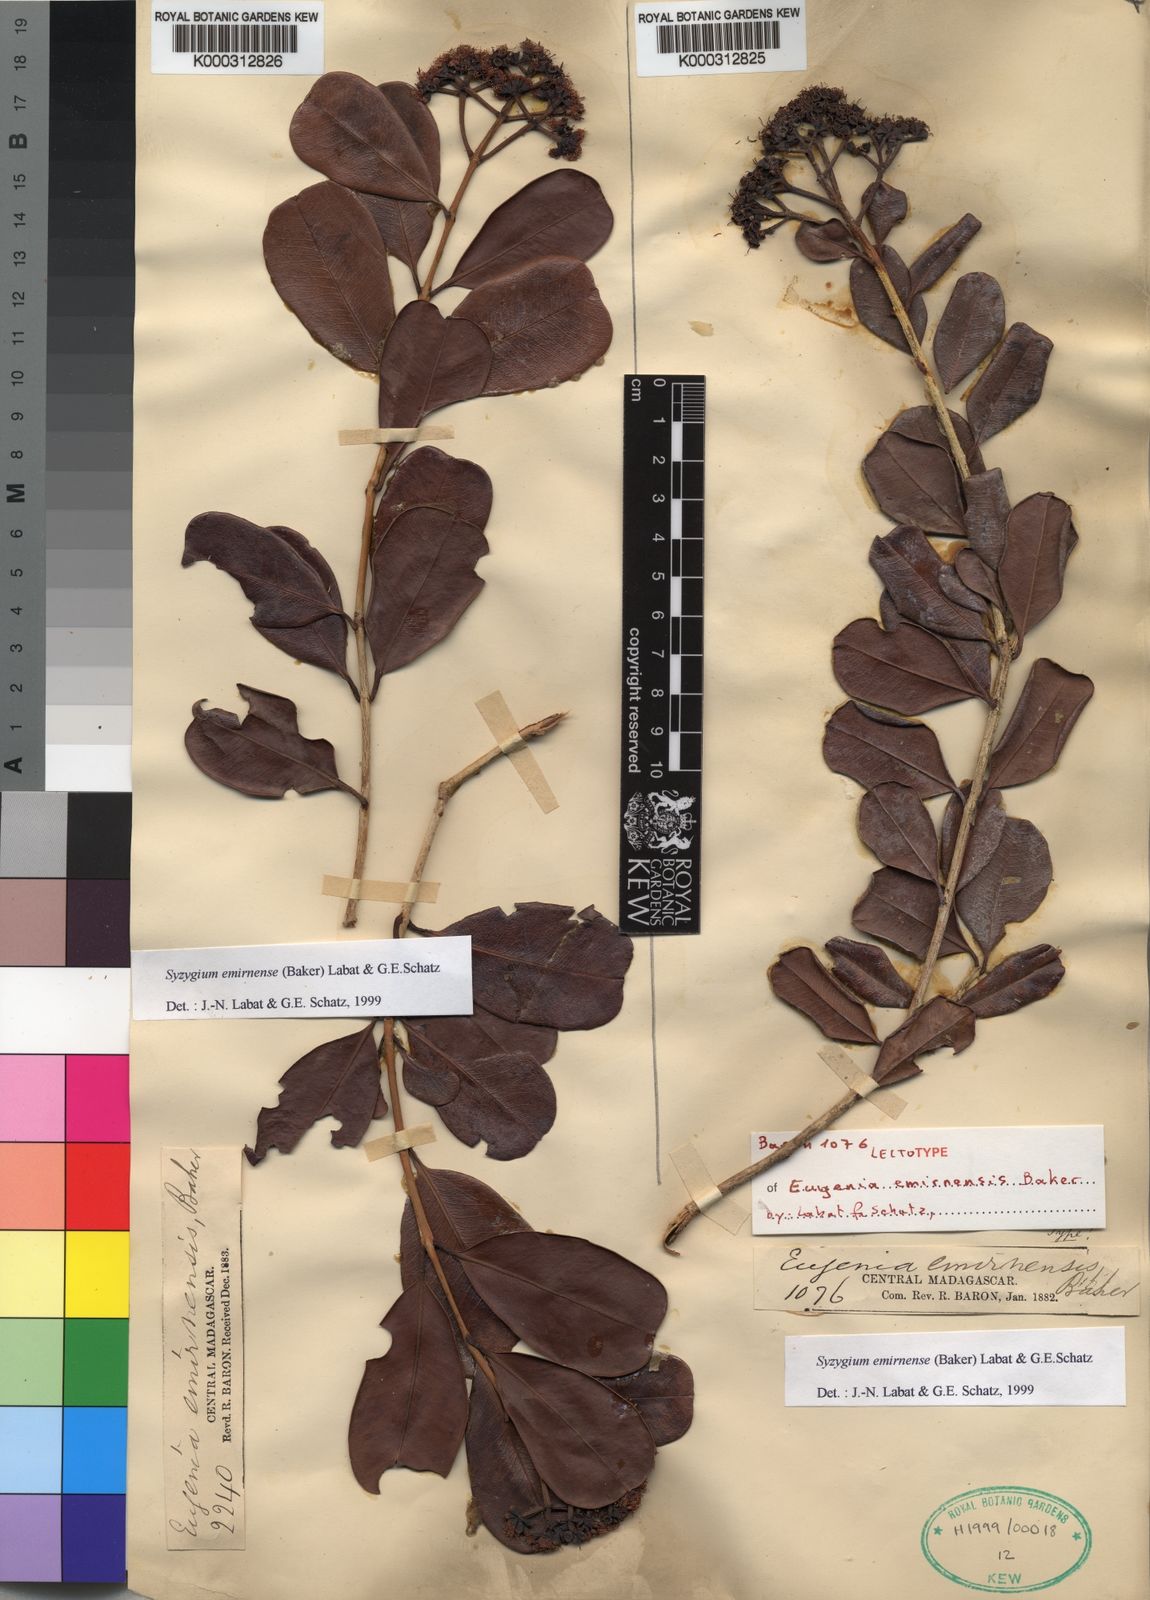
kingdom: Plantae
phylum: Tracheophyta
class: Magnoliopsida
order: Myrtales
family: Myrtaceae
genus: Syzygium
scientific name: Syzygium
